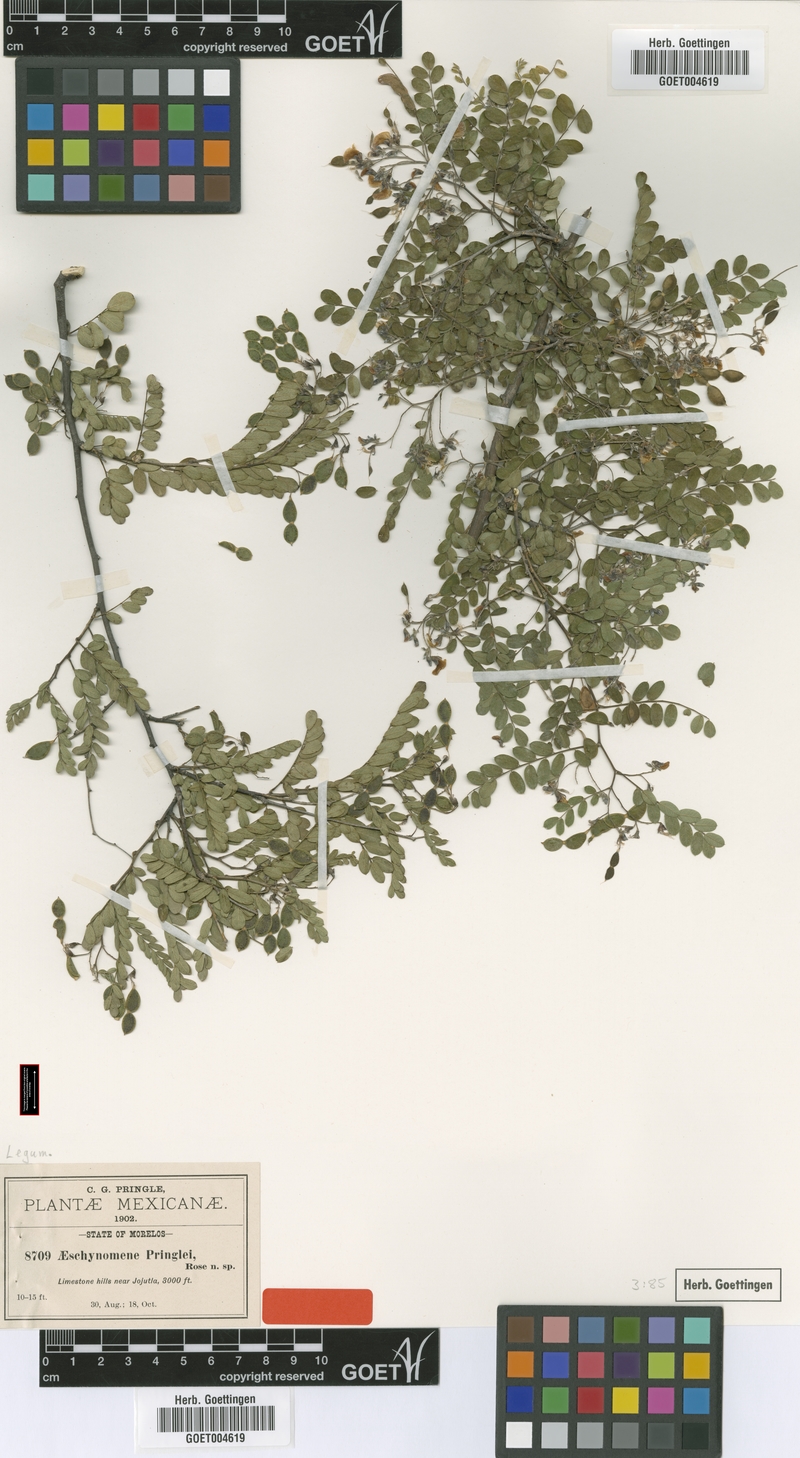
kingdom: Plantae
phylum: Tracheophyta
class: Magnoliopsida
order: Fabales
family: Fabaceae
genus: Ctenodon
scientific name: Ctenodon petraeus
